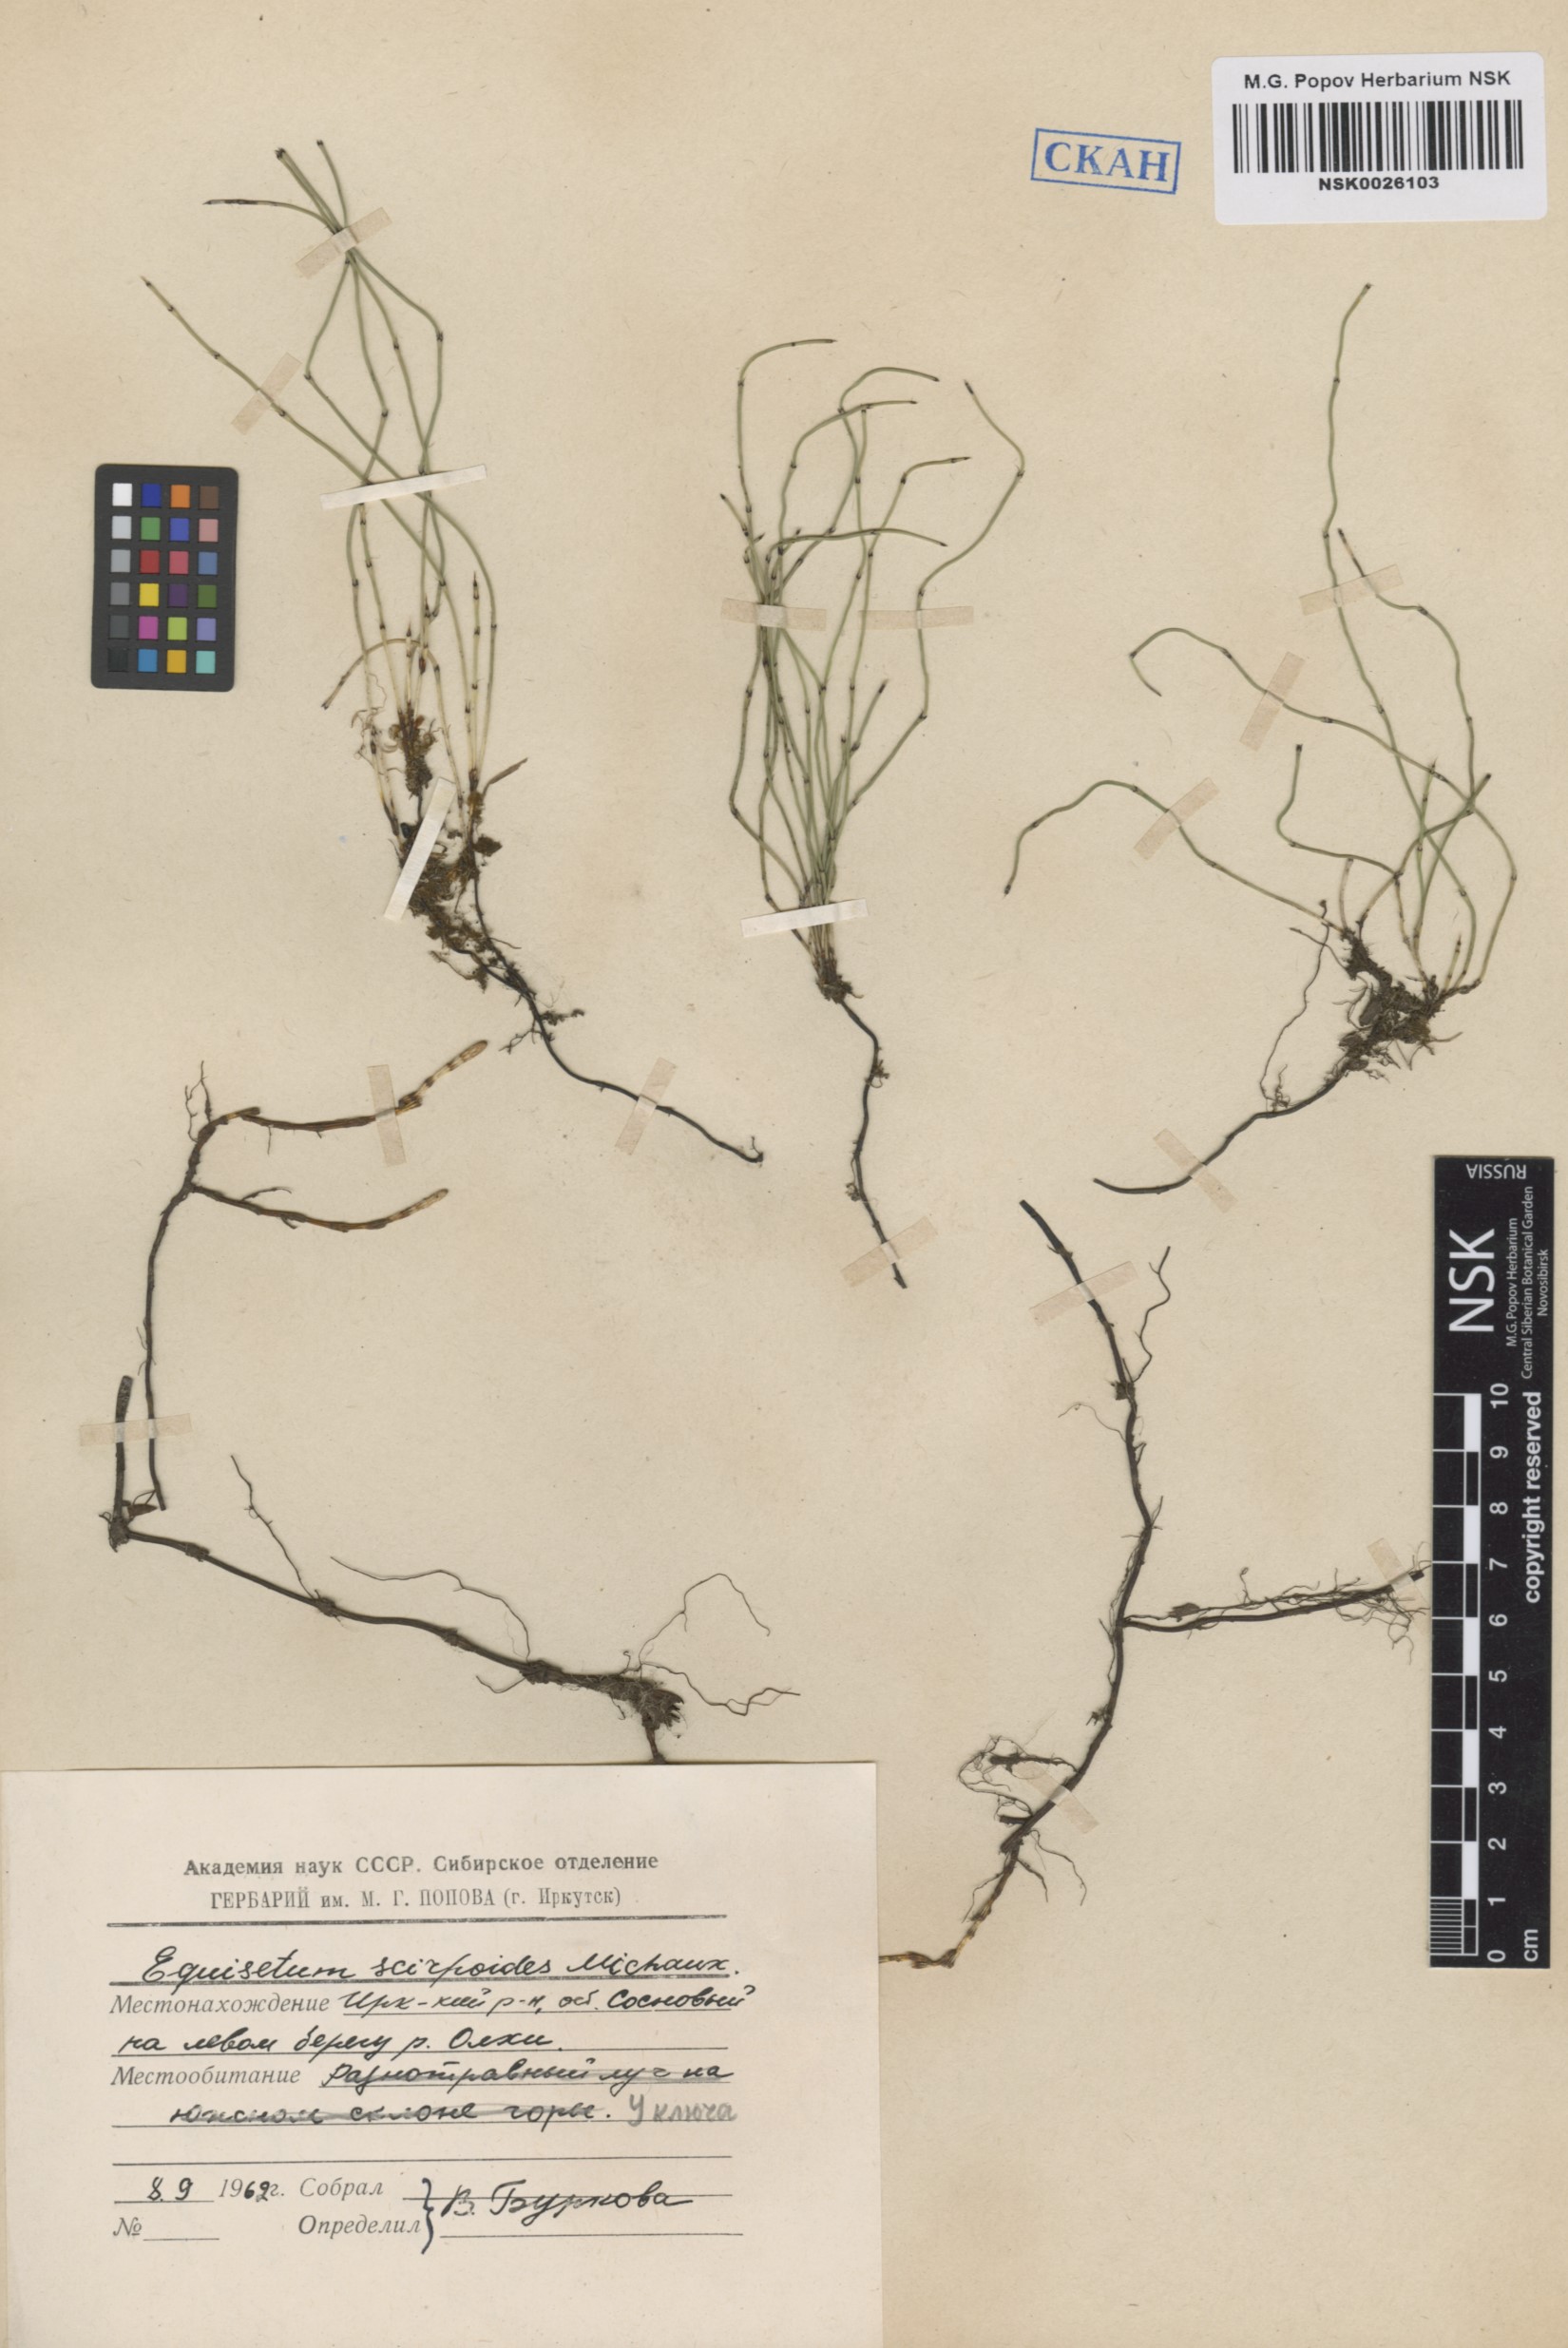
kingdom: Plantae
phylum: Tracheophyta
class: Polypodiopsida
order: Equisetales
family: Equisetaceae
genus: Equisetum
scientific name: Equisetum scirpoides
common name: Delicate horsetail
